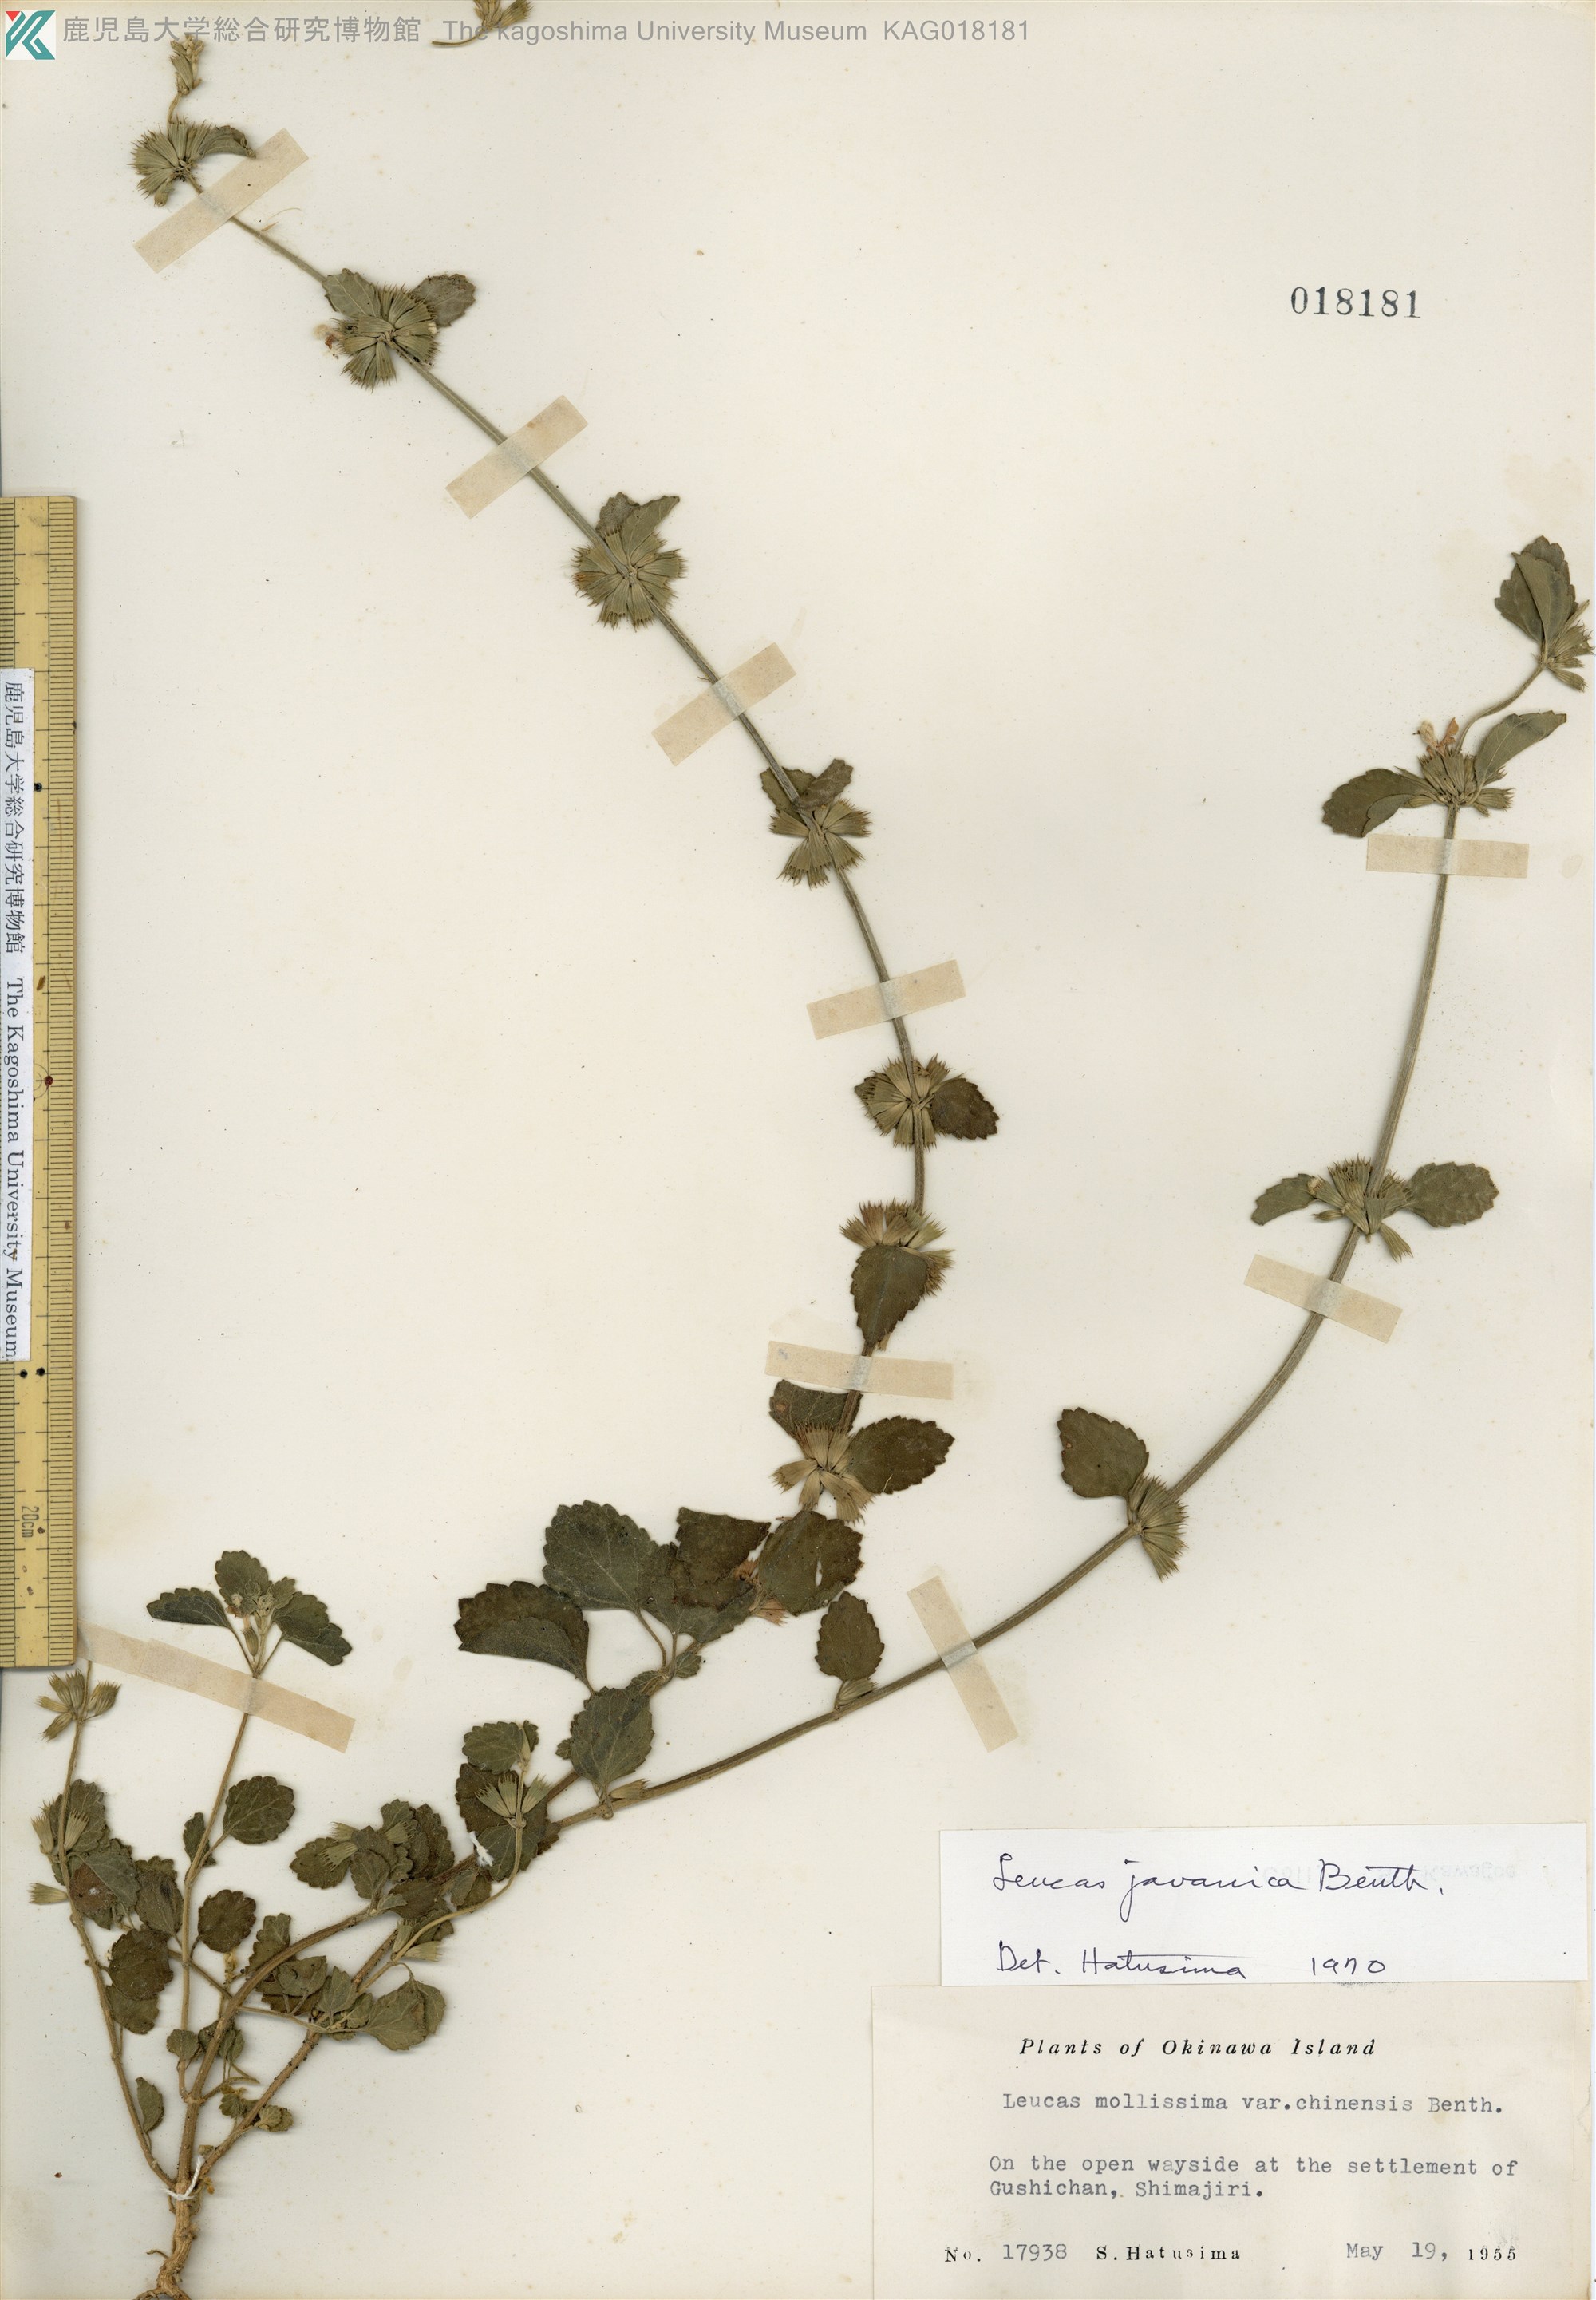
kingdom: Plantae
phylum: Tracheophyta
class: Magnoliopsida
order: Lamiales
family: Lamiaceae
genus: Leucas
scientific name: Leucas chinensis
